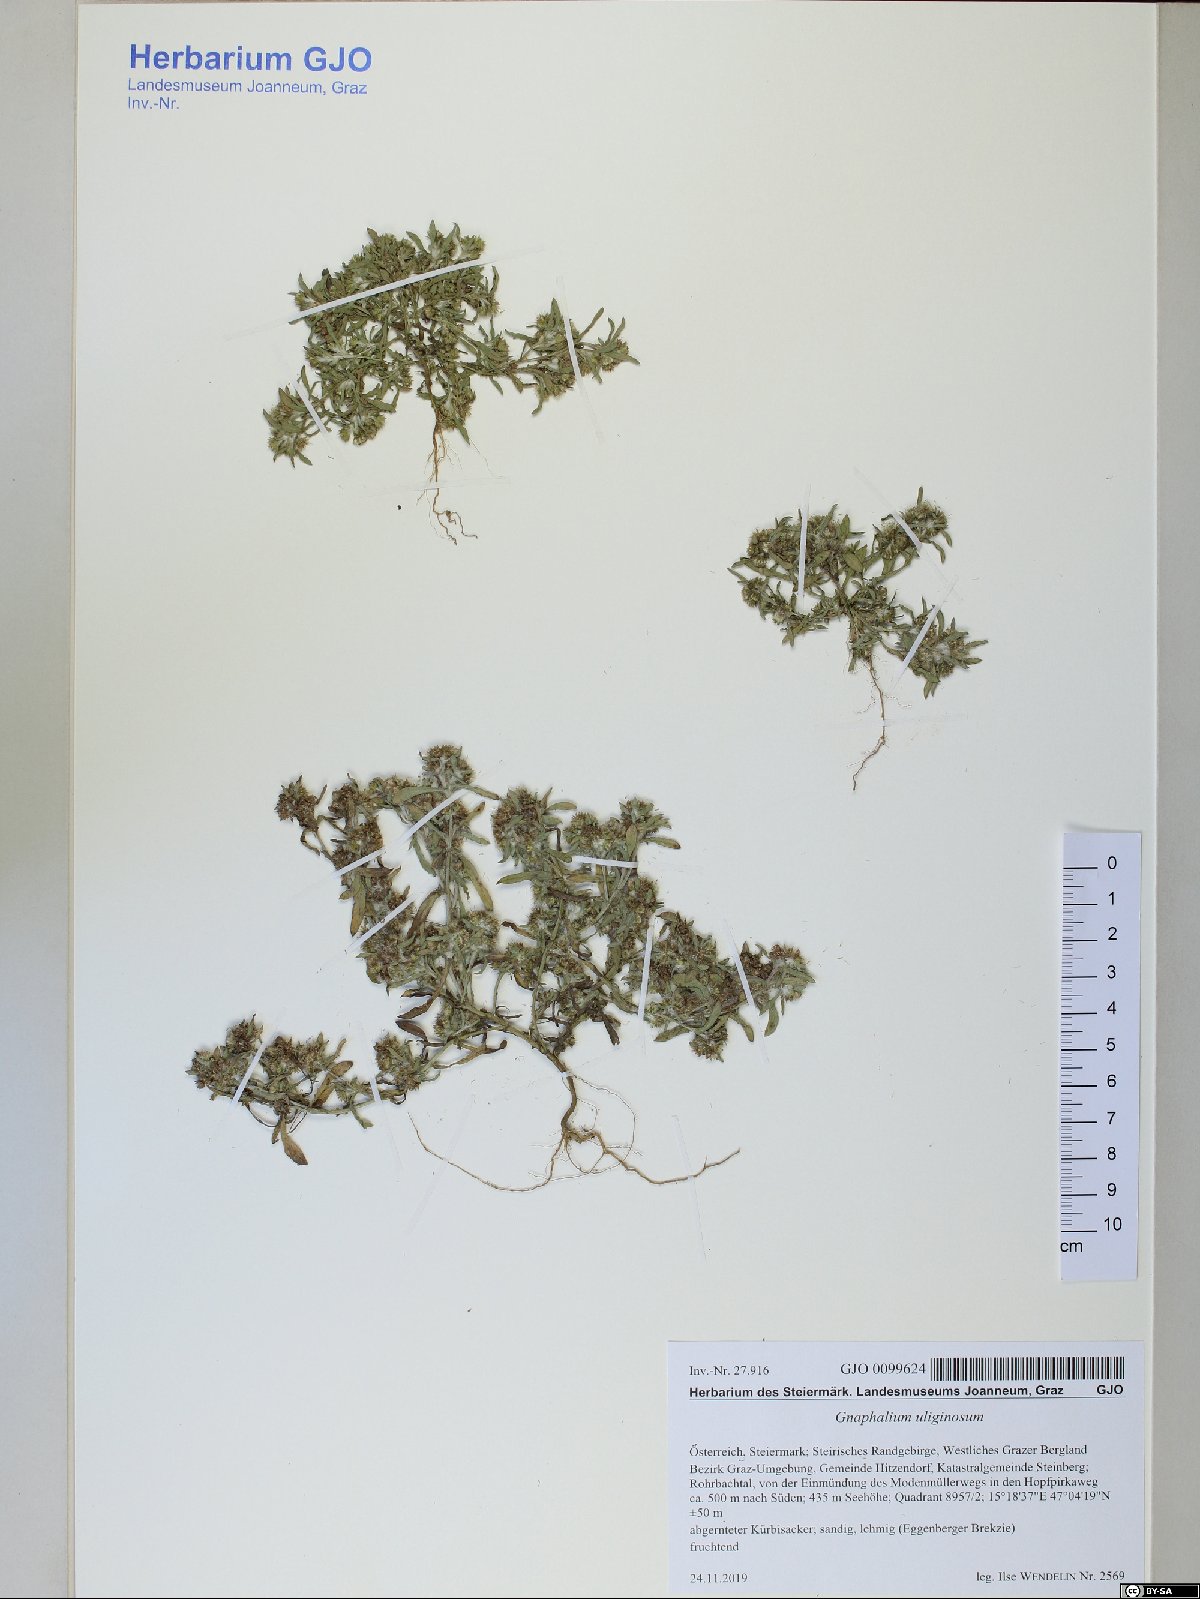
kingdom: Plantae
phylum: Tracheophyta
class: Magnoliopsida
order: Asterales
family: Asteraceae
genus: Gnaphalium
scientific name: Gnaphalium uliginosum
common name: Marsh cudweed
